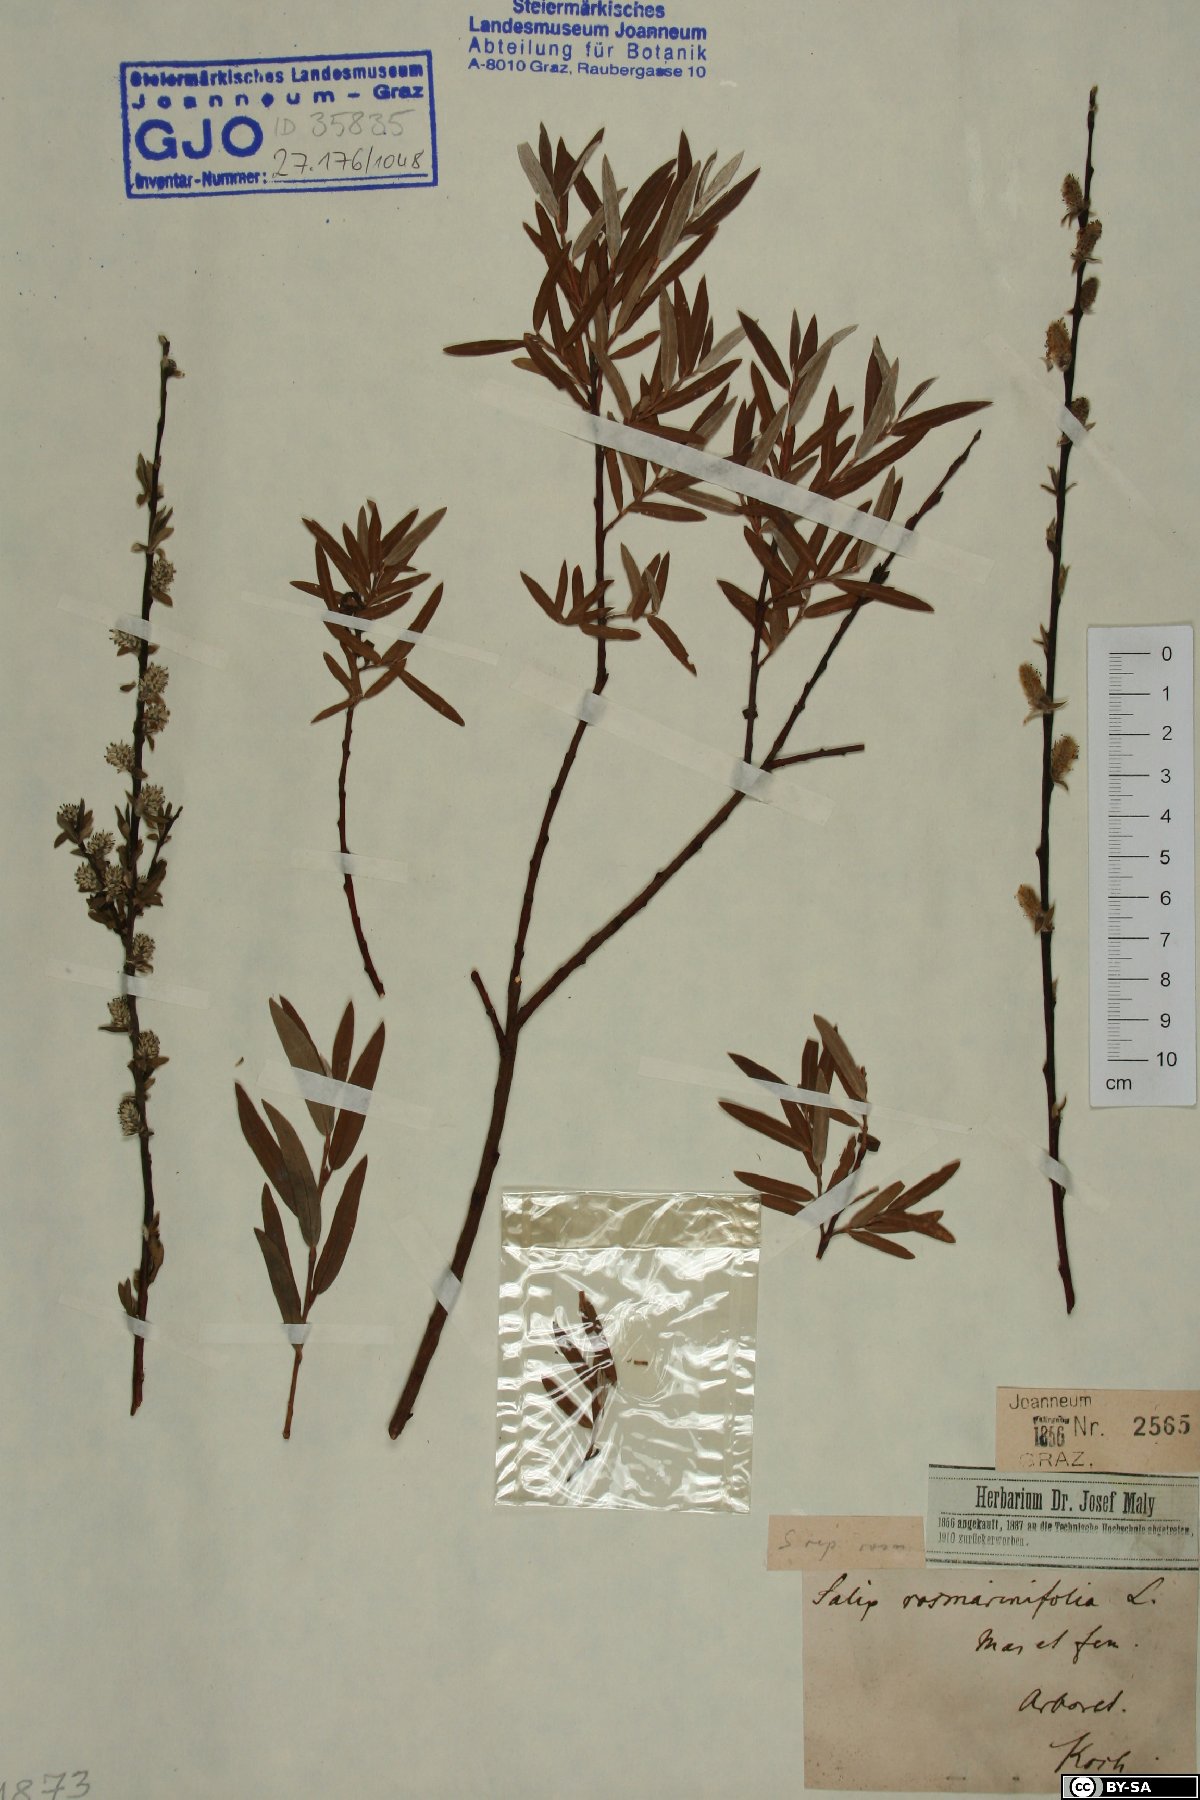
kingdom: Plantae
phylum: Tracheophyta
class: Magnoliopsida
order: Malpighiales
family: Salicaceae
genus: Salix
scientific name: Salix repens
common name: Creeping willow
